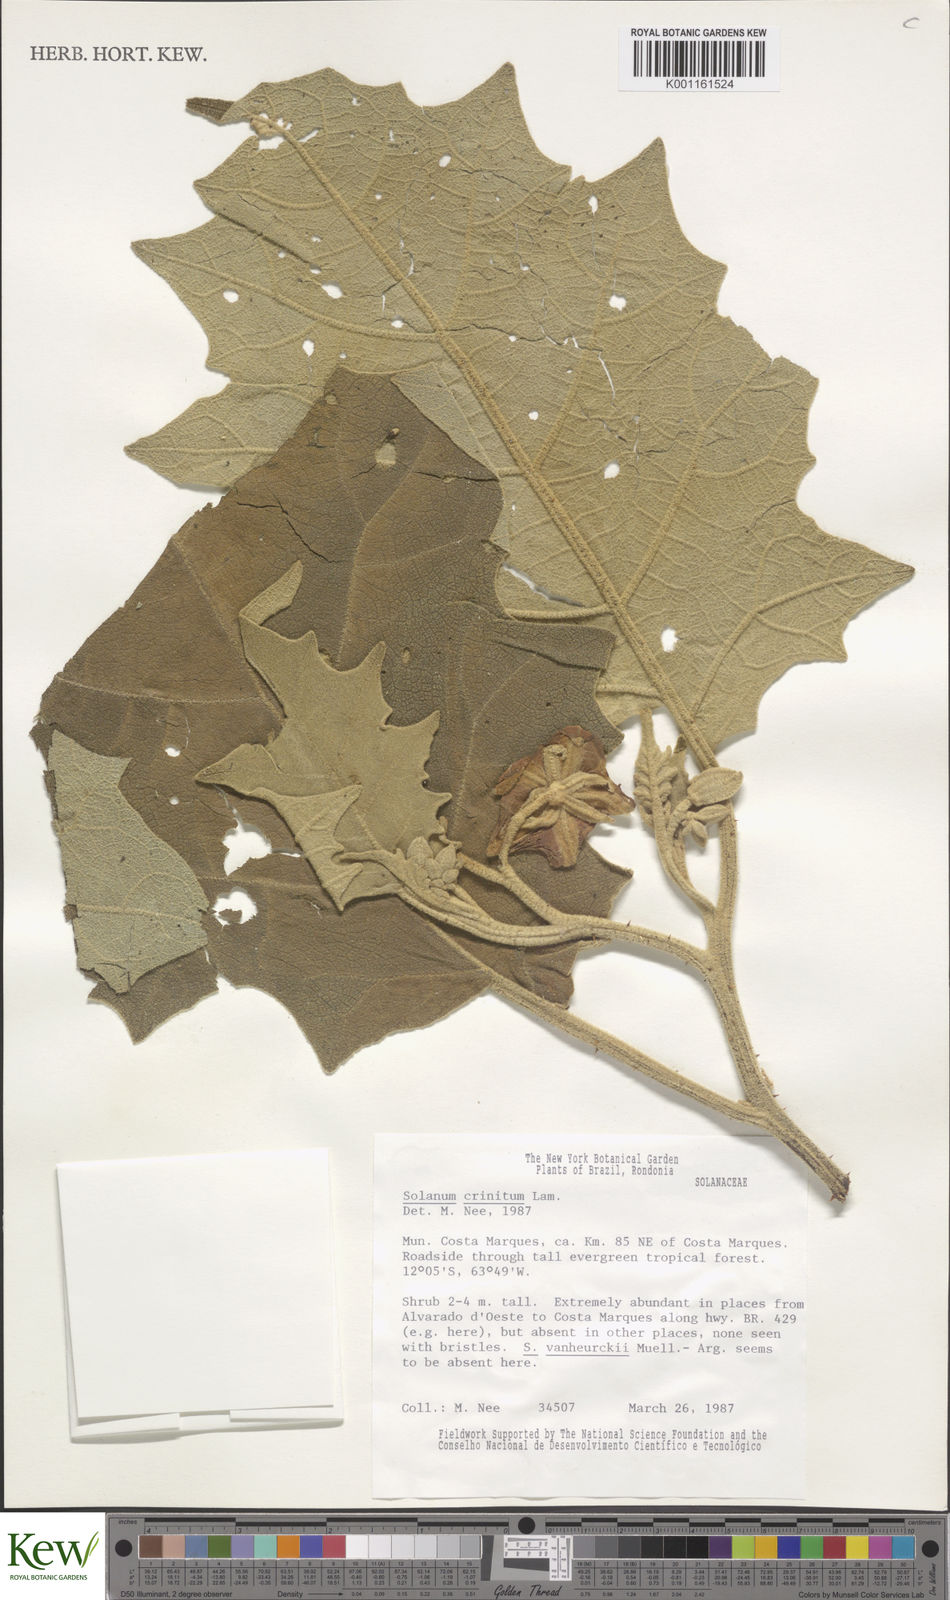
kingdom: Plantae
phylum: Tracheophyta
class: Magnoliopsida
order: Solanales
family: Solanaceae
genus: Solanum
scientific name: Solanum crinitum
